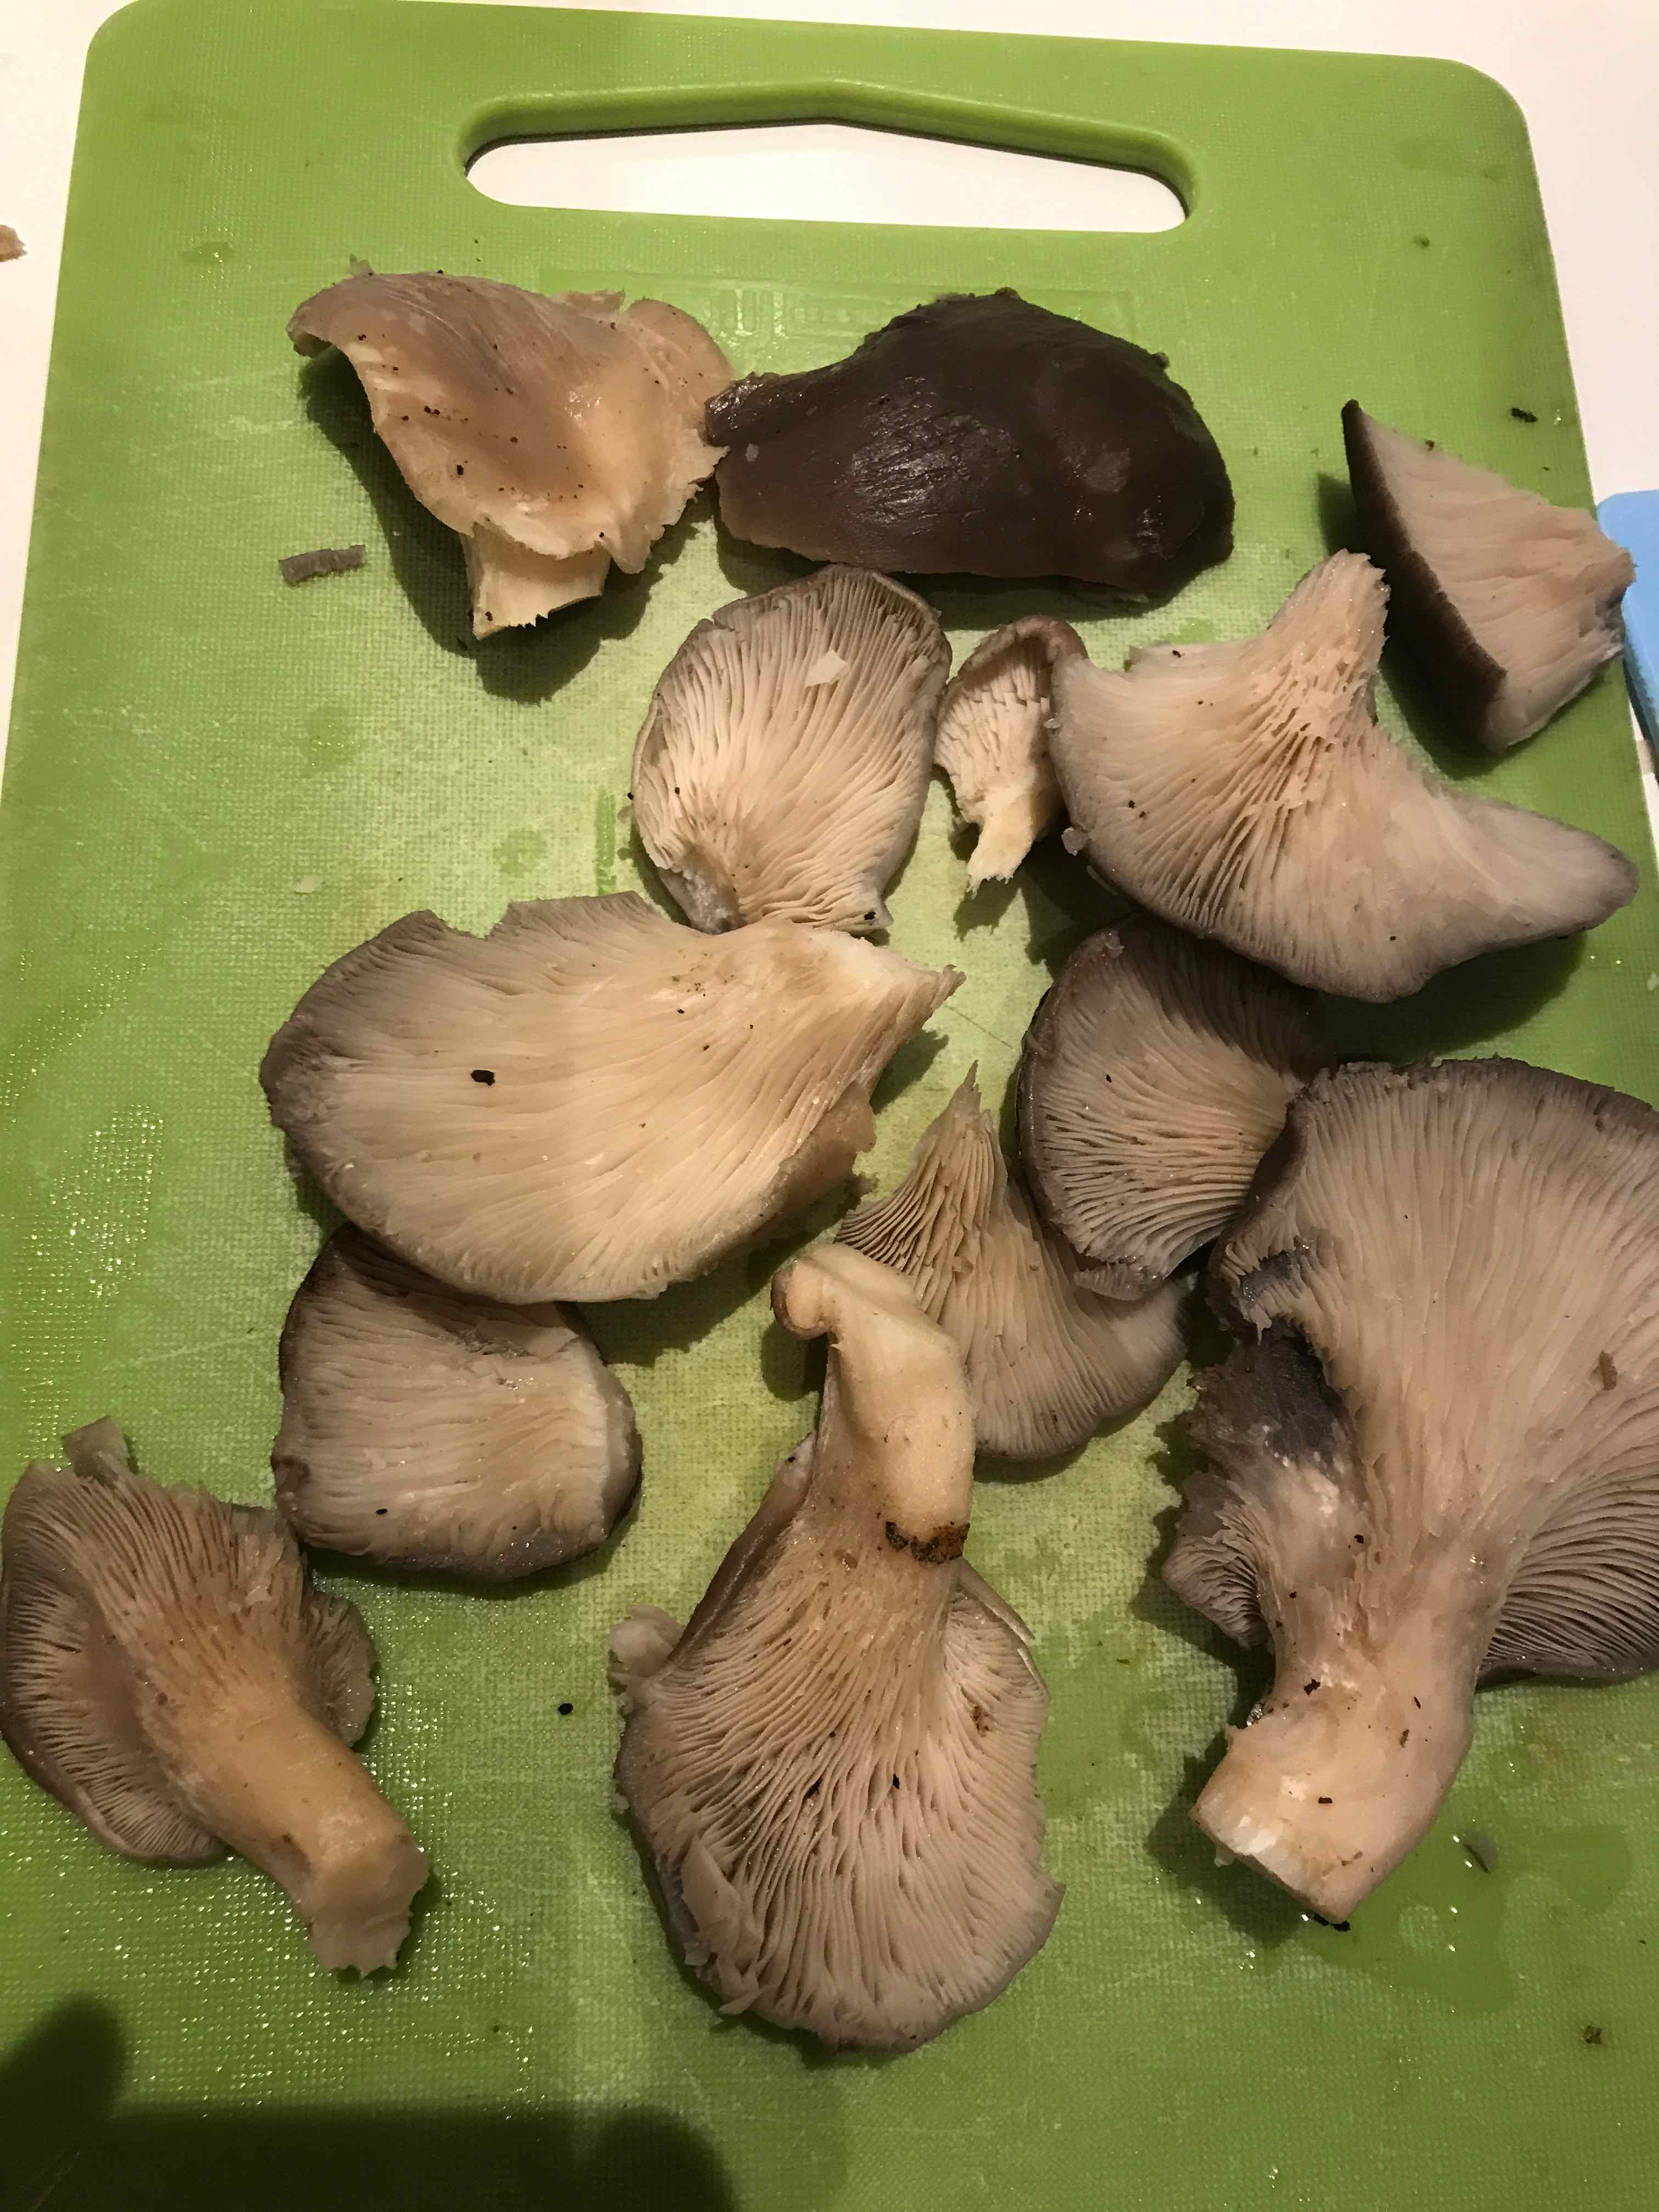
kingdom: Fungi
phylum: Basidiomycota
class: Agaricomycetes
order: Agaricales
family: Pleurotaceae
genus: Pleurotus
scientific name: Pleurotus ostreatus
